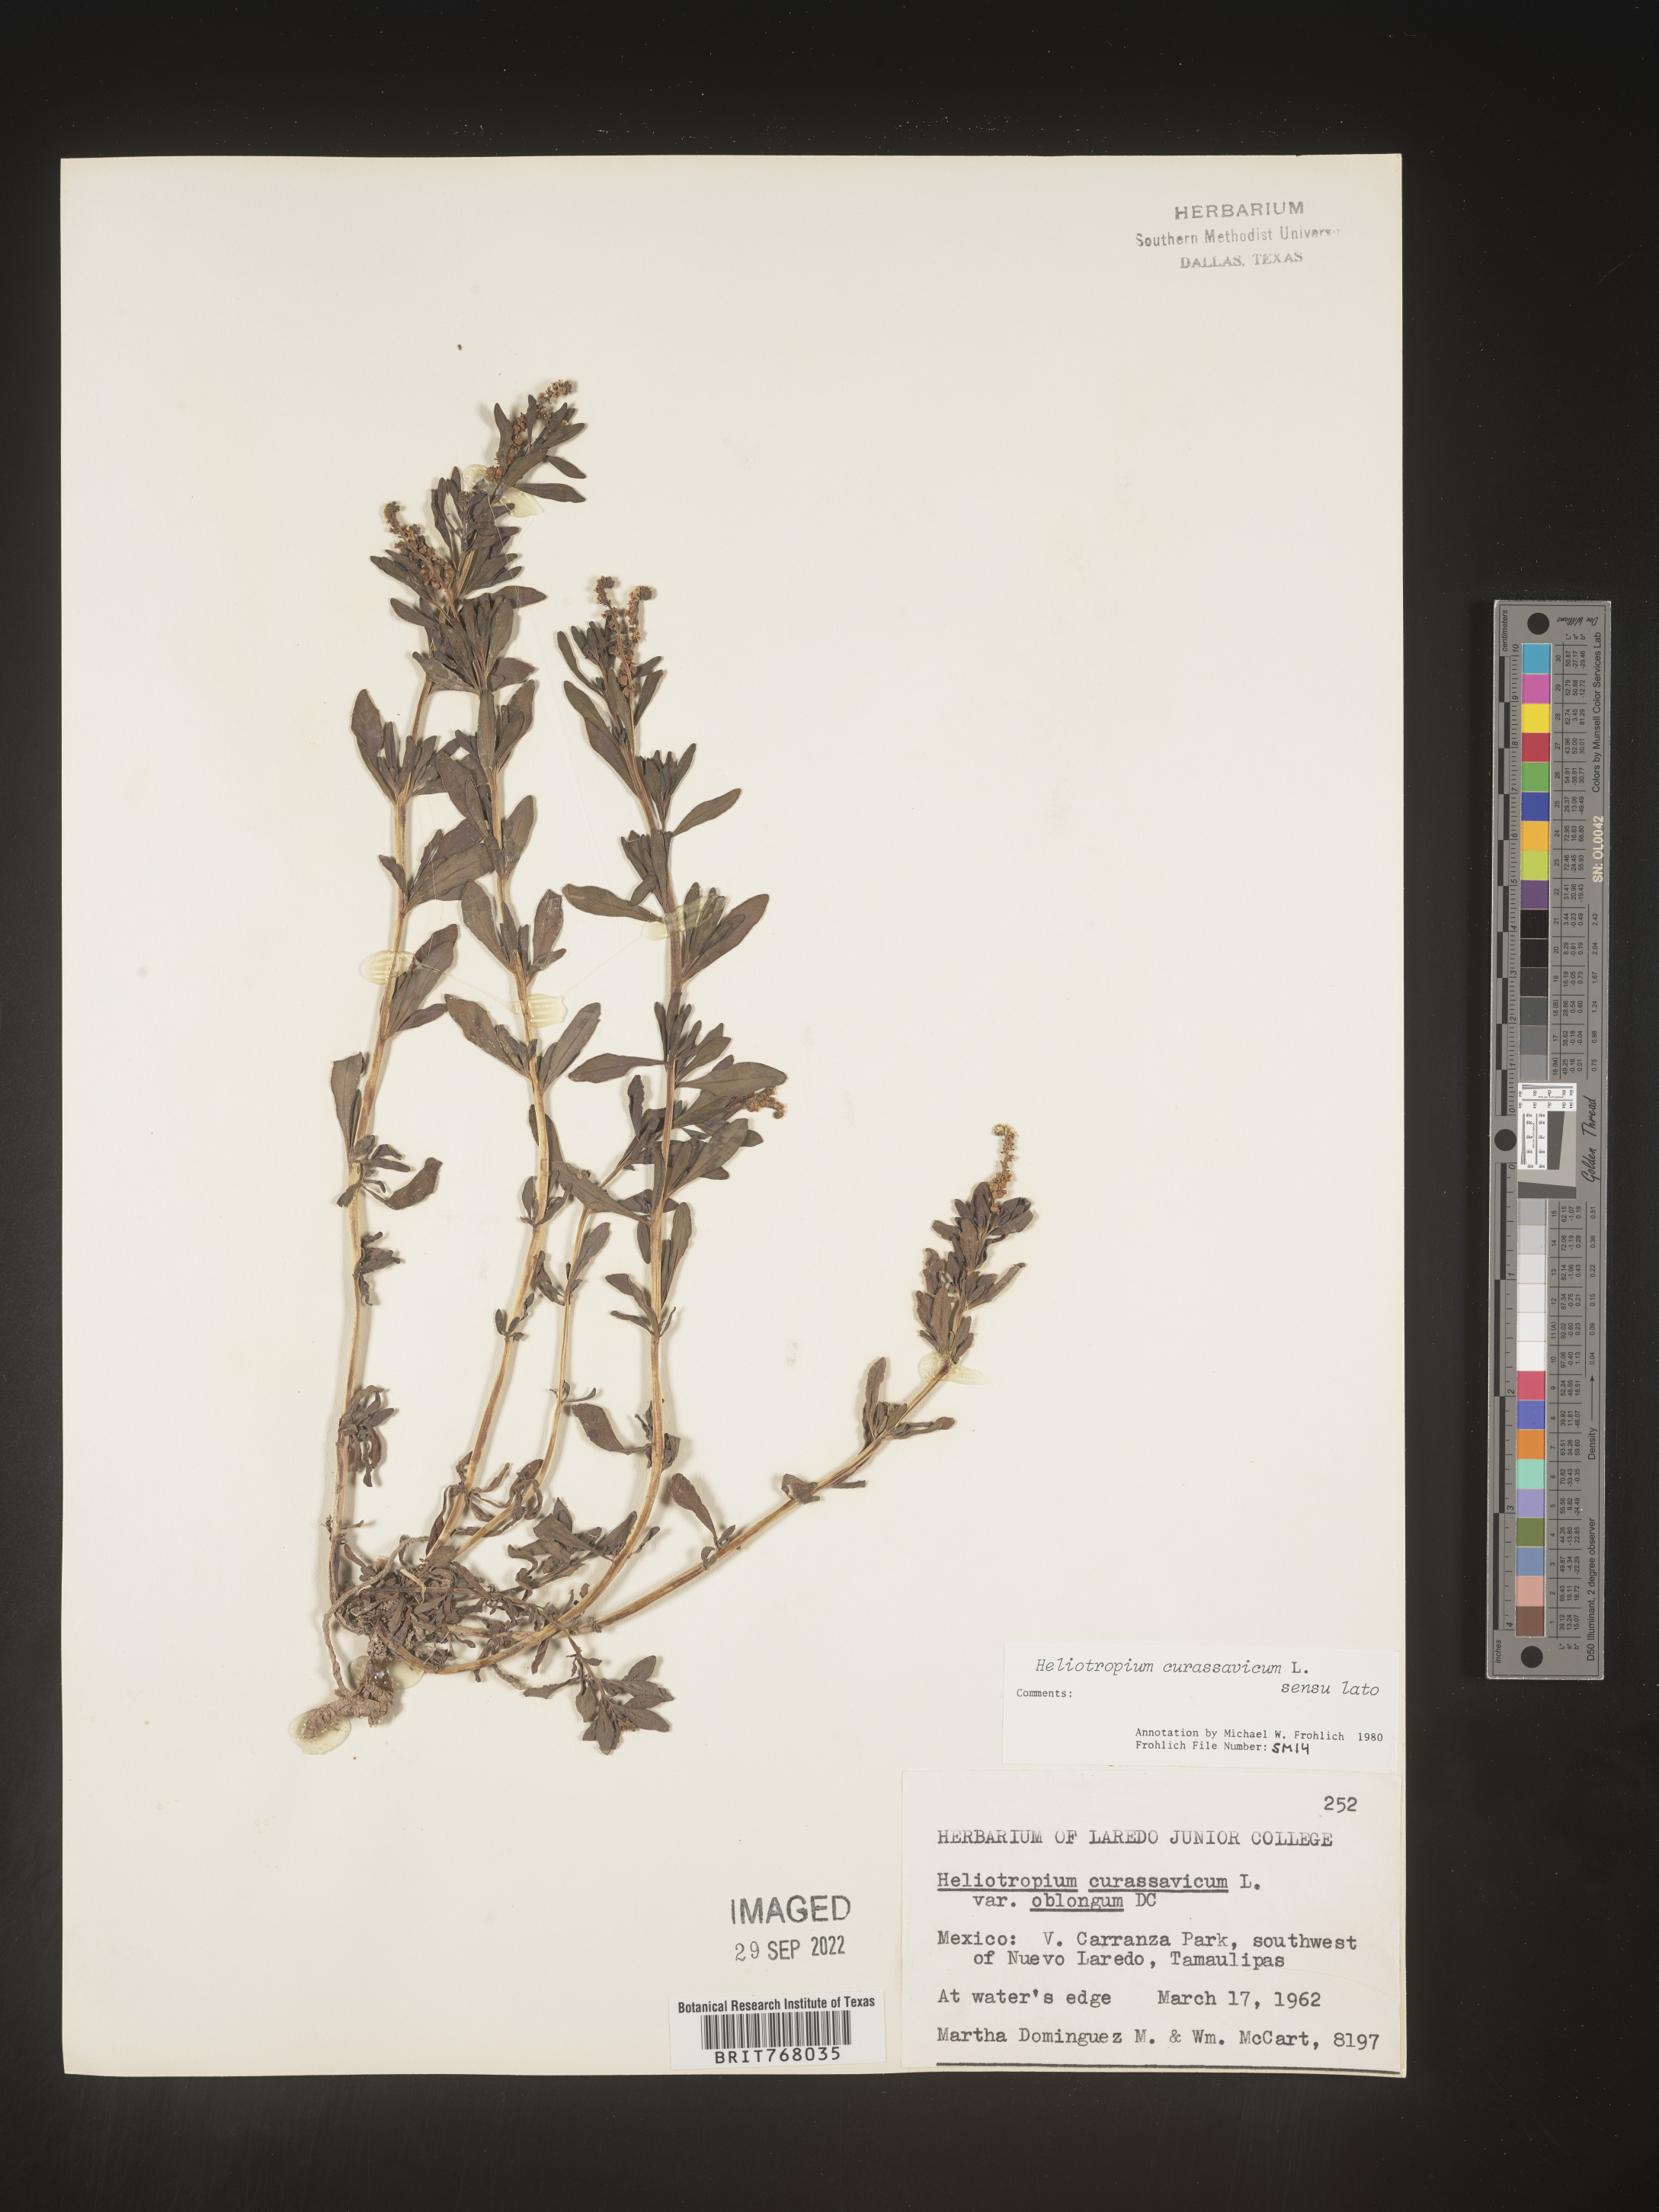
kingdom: Plantae
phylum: Tracheophyta
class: Magnoliopsida
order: Boraginales
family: Heliotropiaceae
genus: Heliotropium
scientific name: Heliotropium curassavicum
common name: Seaside heliotrope
